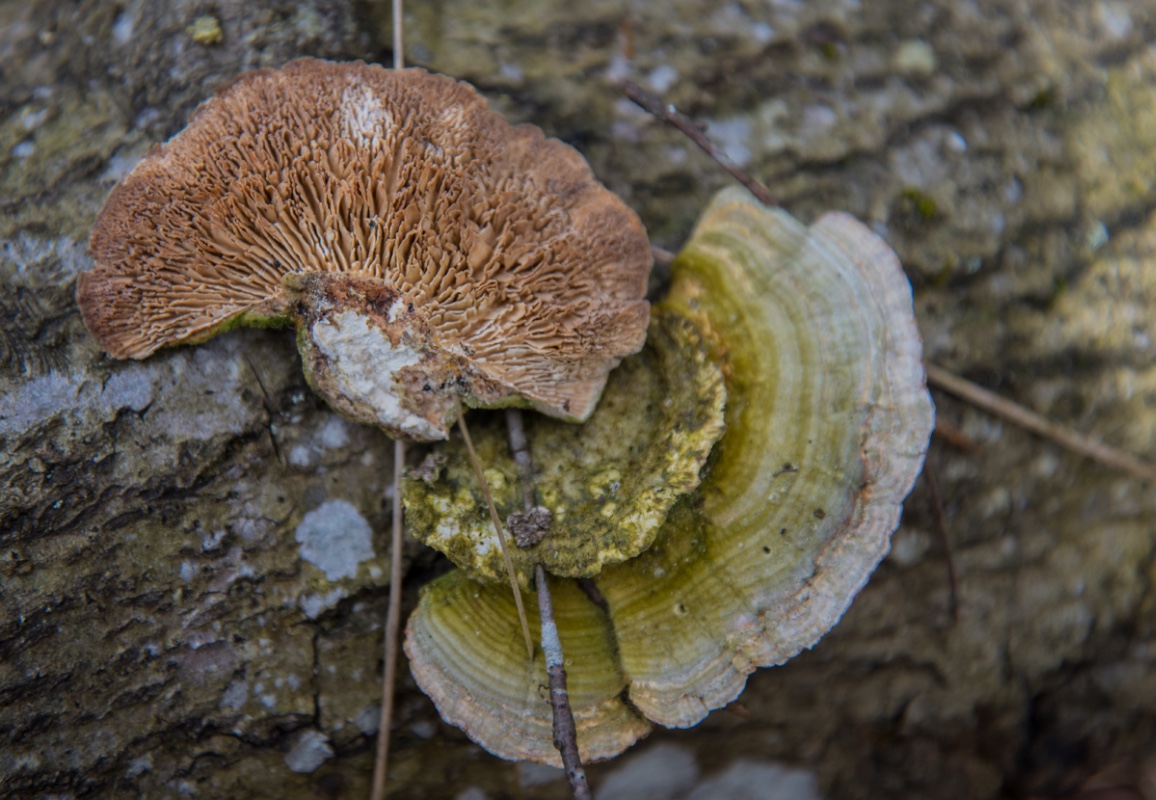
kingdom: Fungi
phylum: Basidiomycota
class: Agaricomycetes
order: Polyporales
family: Polyporaceae
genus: Lenzites
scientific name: Lenzites betulinus
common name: birke-læderporesvamp
